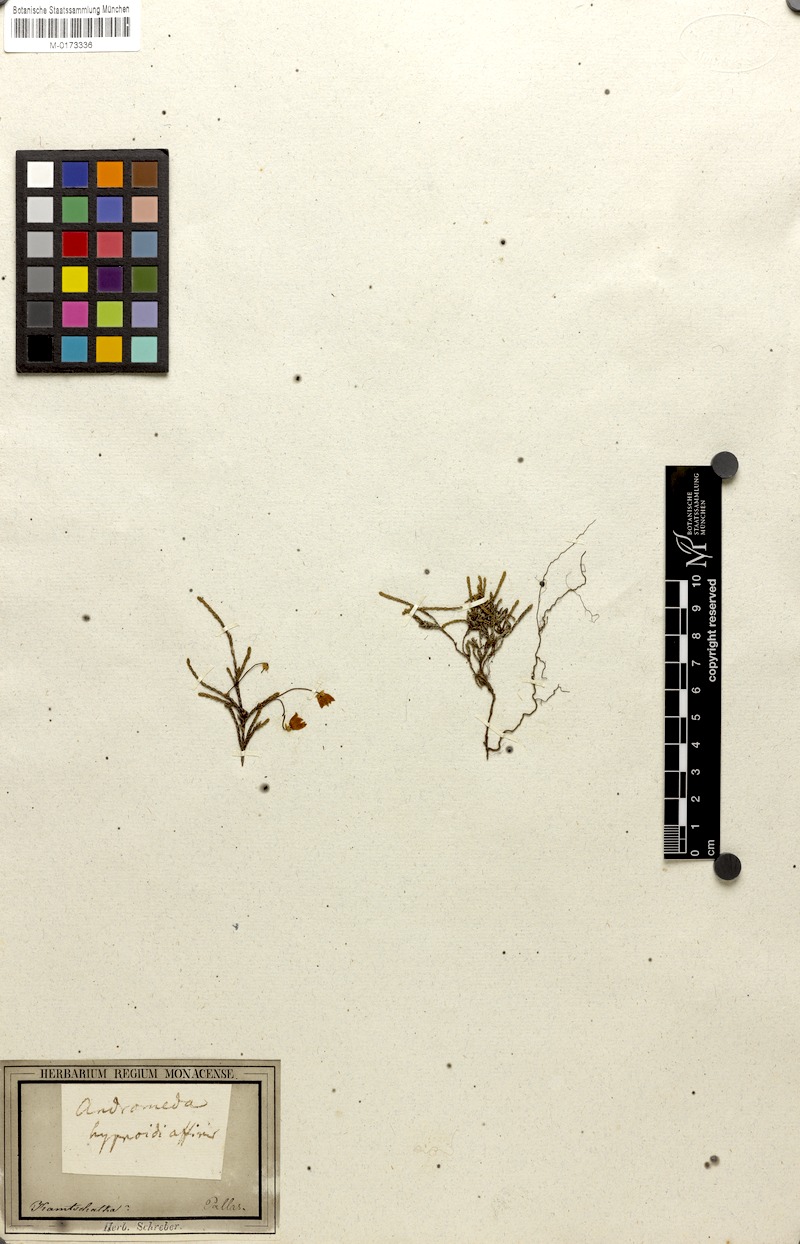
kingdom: Plantae
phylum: Tracheophyta
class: Magnoliopsida
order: Ericales
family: Ericaceae
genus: Cassiope
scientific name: Cassiope lycopodioides
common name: Clubmoss mountain heather
